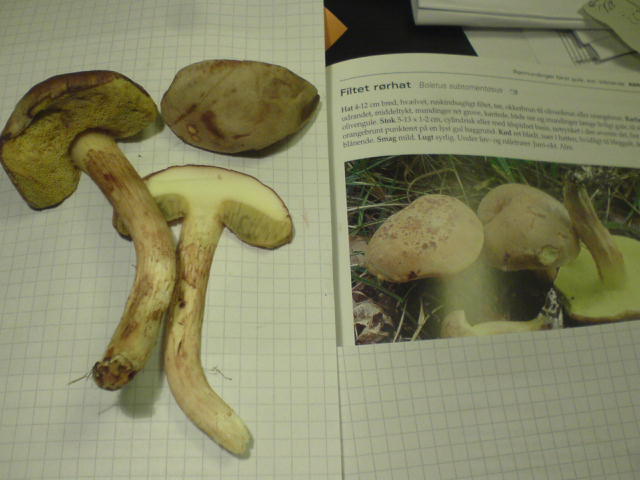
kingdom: Fungi
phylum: Basidiomycota
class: Agaricomycetes
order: Boletales
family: Boletaceae
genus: Xerocomus
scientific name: Xerocomus subtomentosus
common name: filtet rørhat
